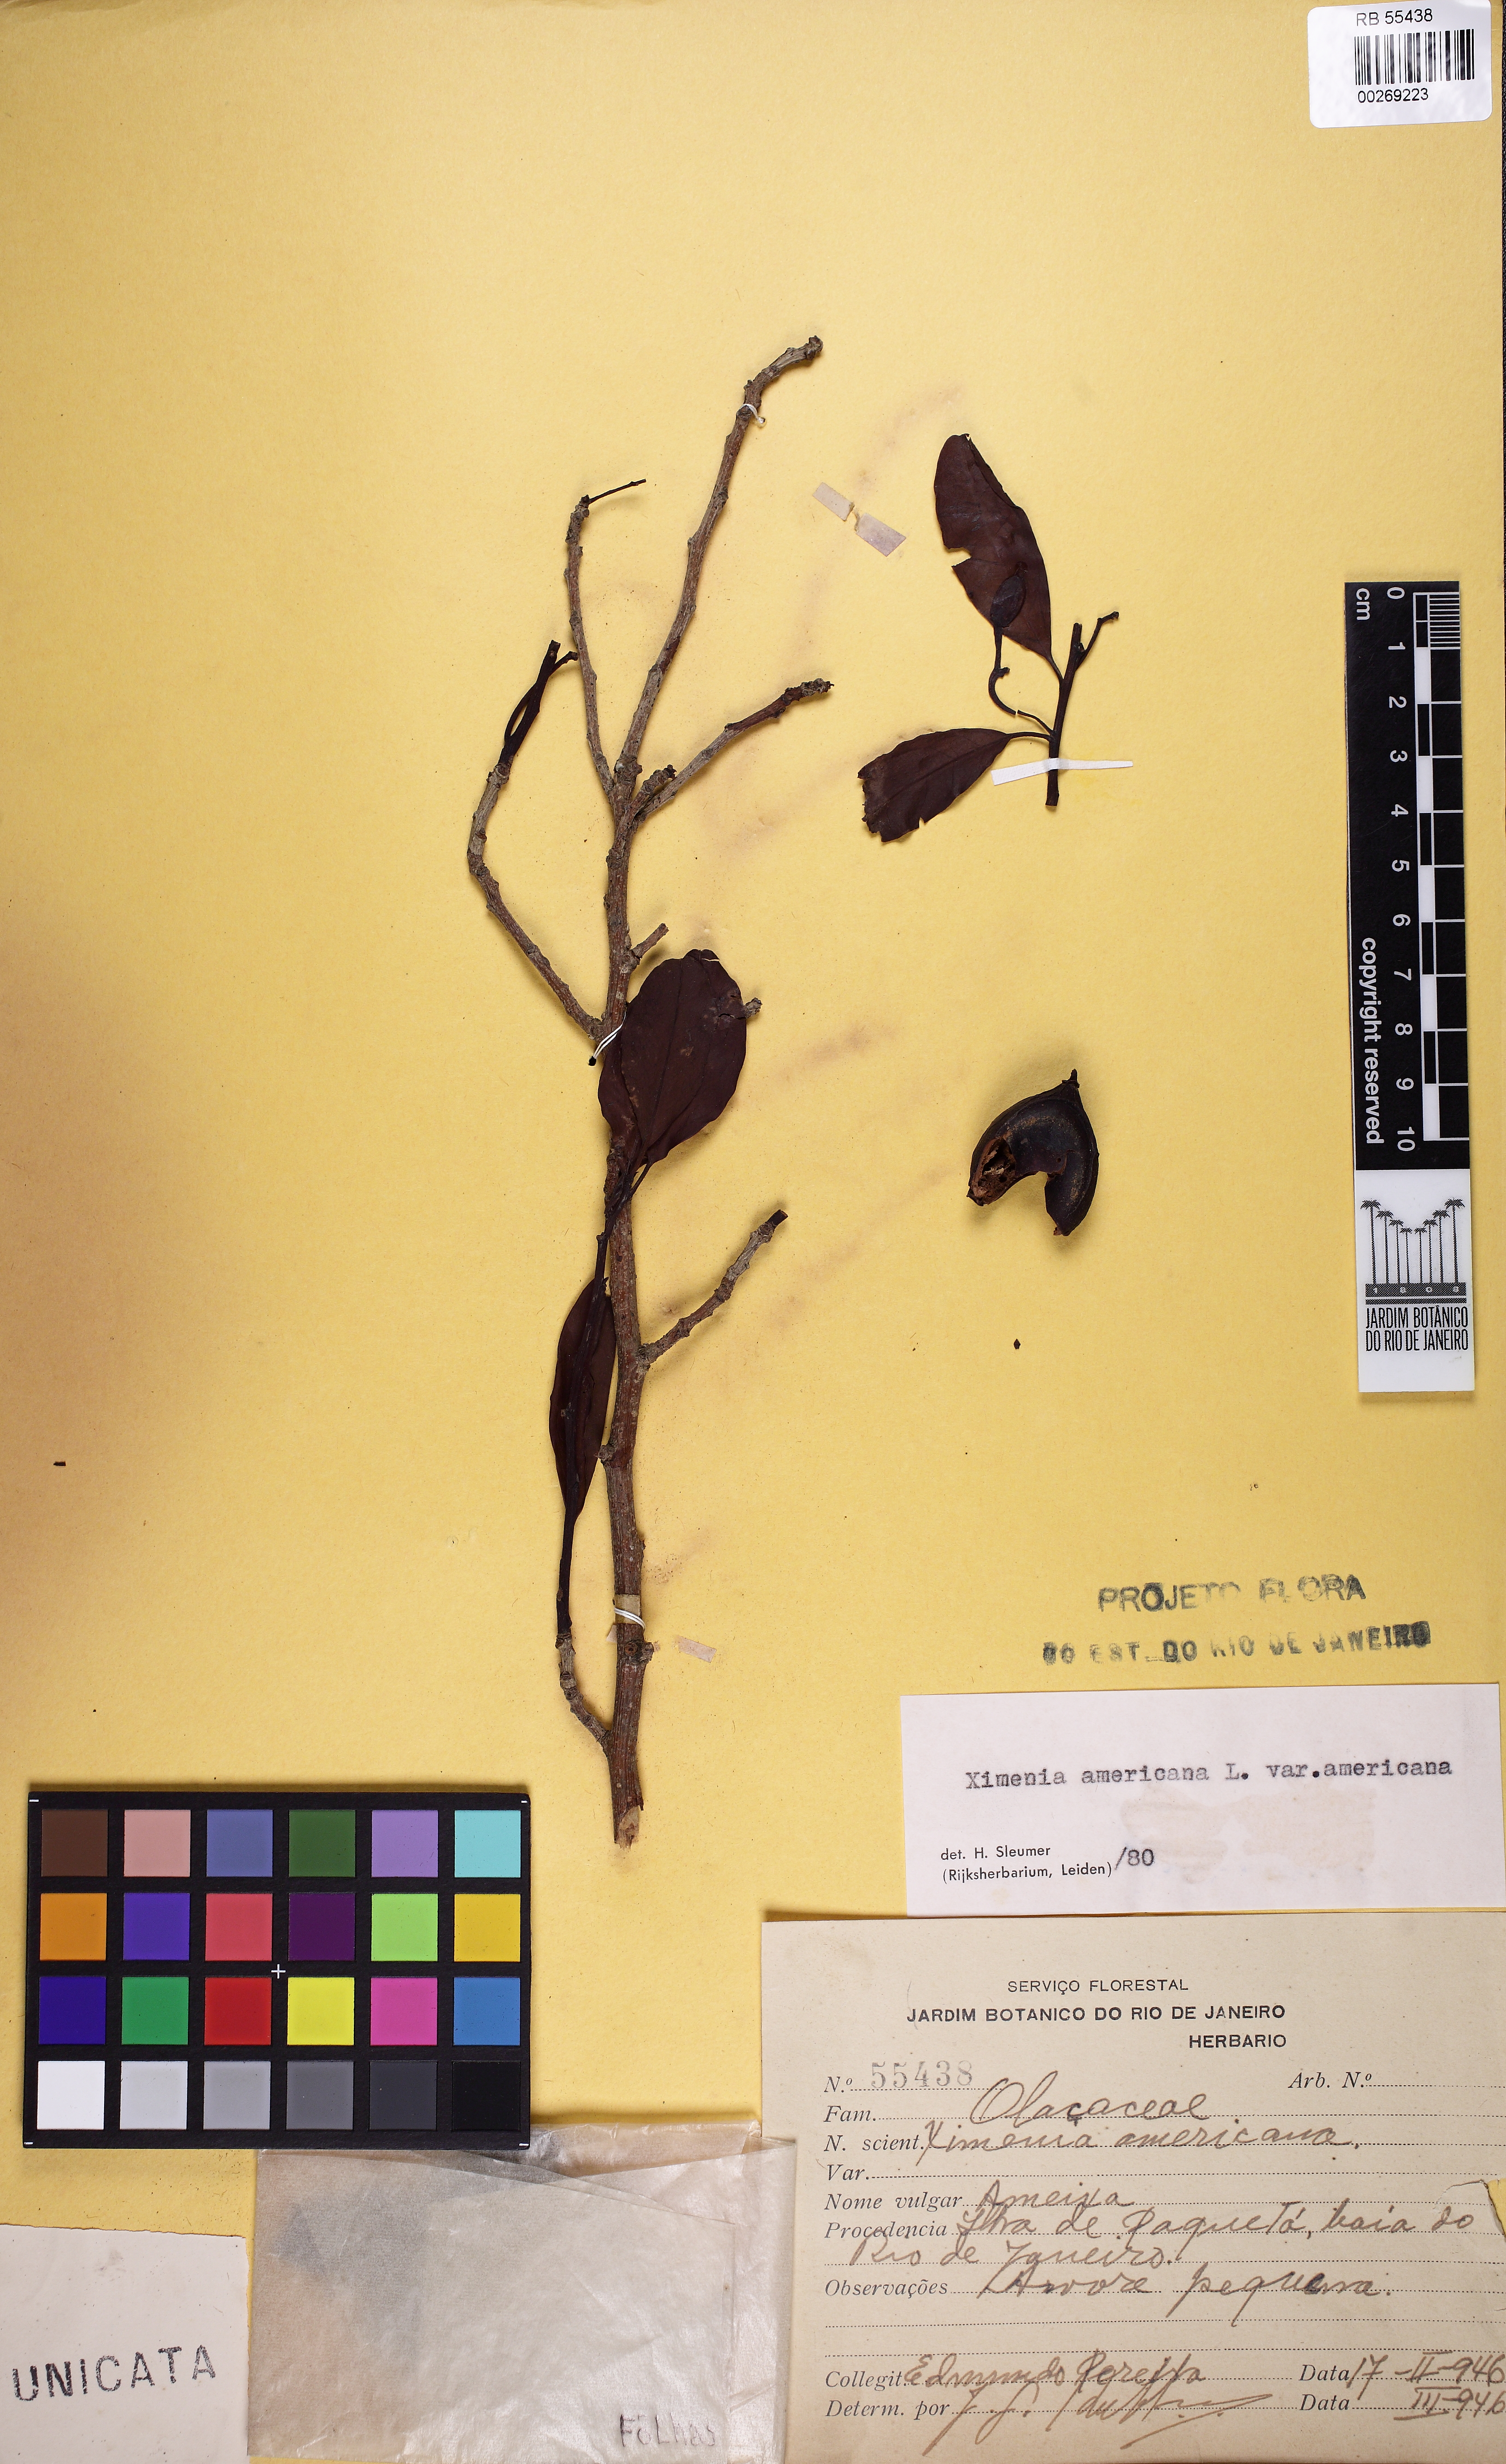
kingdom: Plantae
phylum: Tracheophyta
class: Magnoliopsida
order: Santalales
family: Ximeniaceae
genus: Ximenia
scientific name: Ximenia americana
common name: Tallowwood
